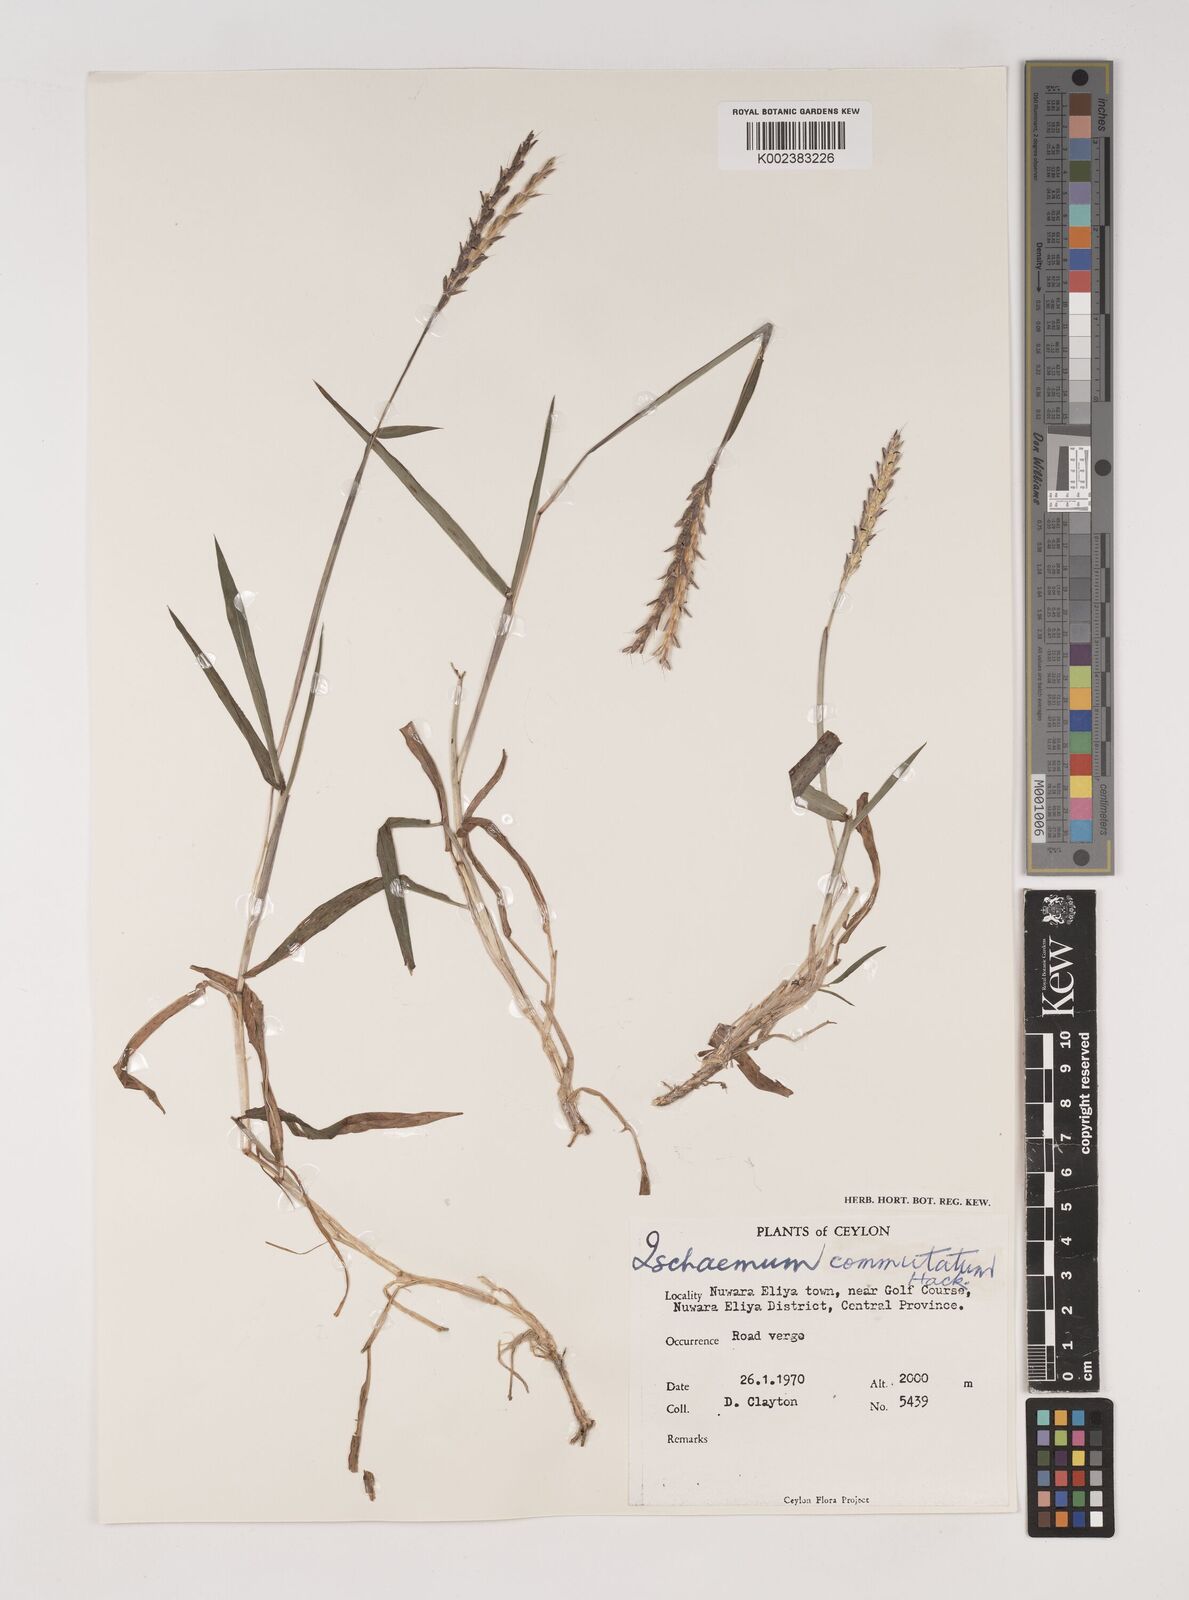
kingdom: Plantae
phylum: Tracheophyta
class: Liliopsida
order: Poales
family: Poaceae
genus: Ischaemum
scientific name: Ischaemum commutatum
